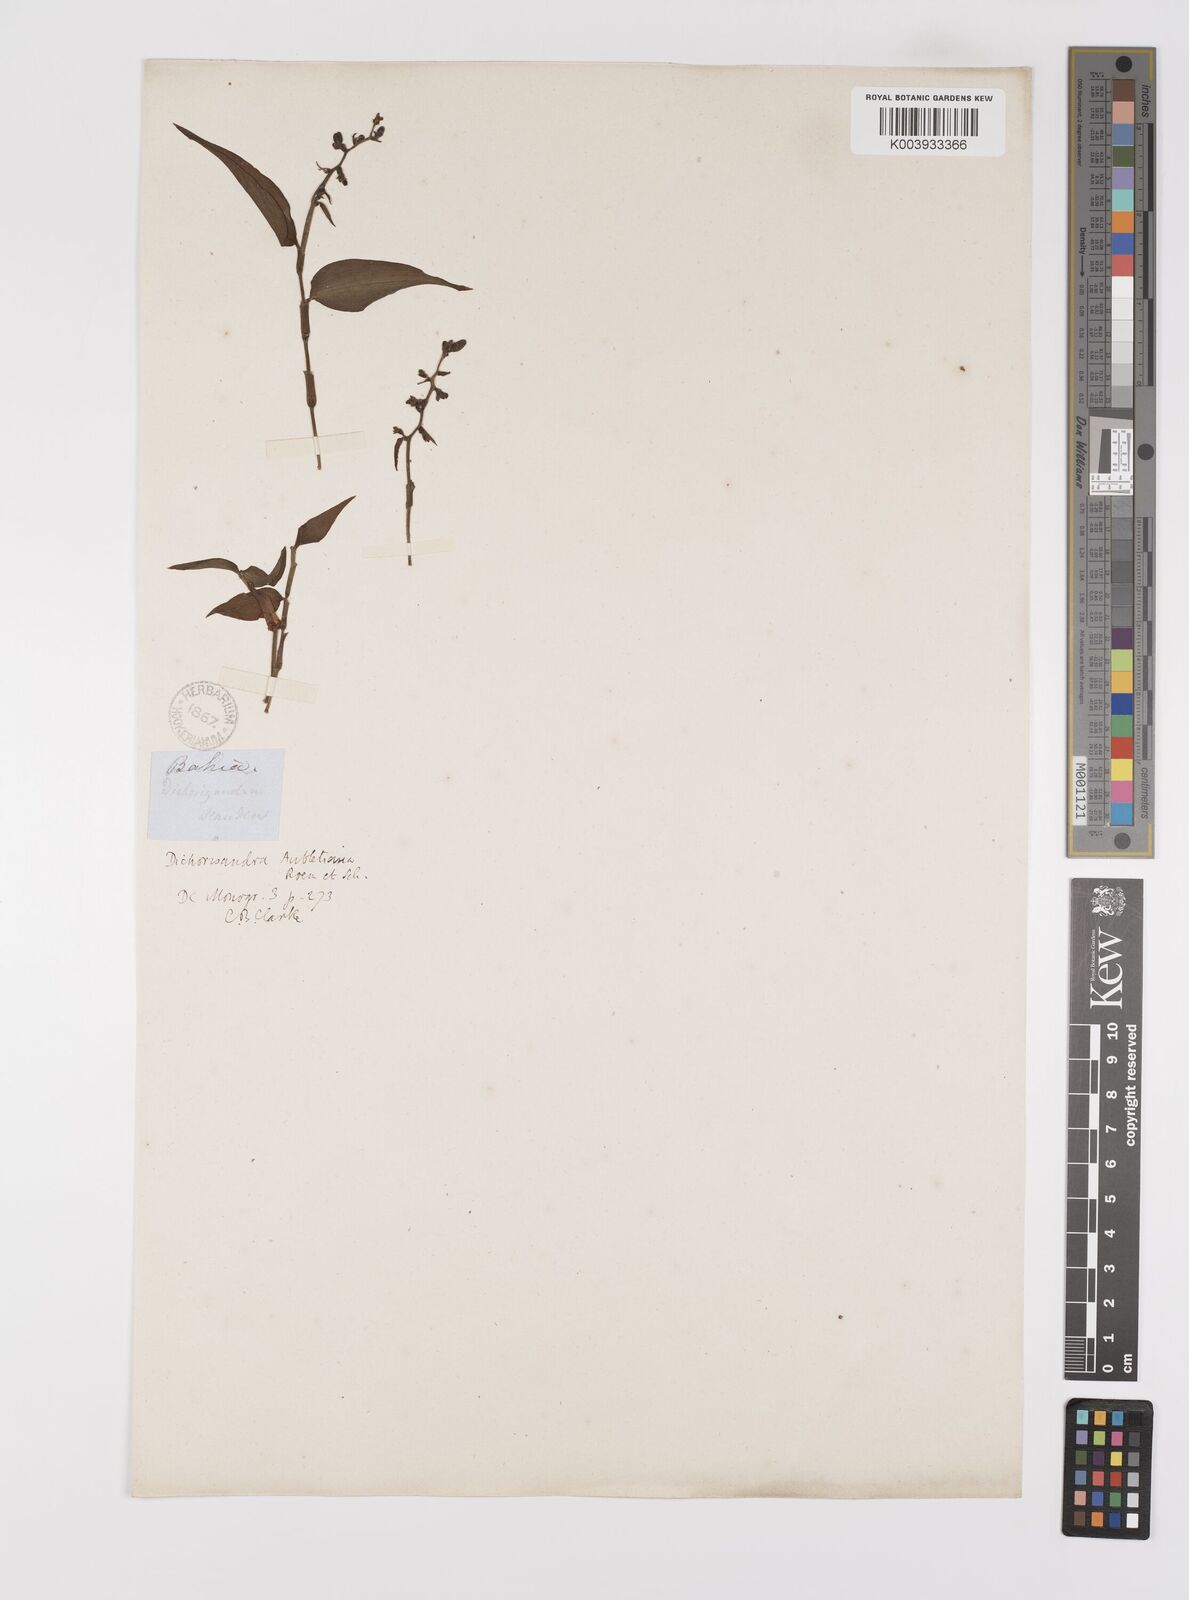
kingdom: Plantae
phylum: Tracheophyta
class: Liliopsida
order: Commelinales
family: Commelinaceae
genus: Dichorisandra
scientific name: Dichorisandra hexandra
